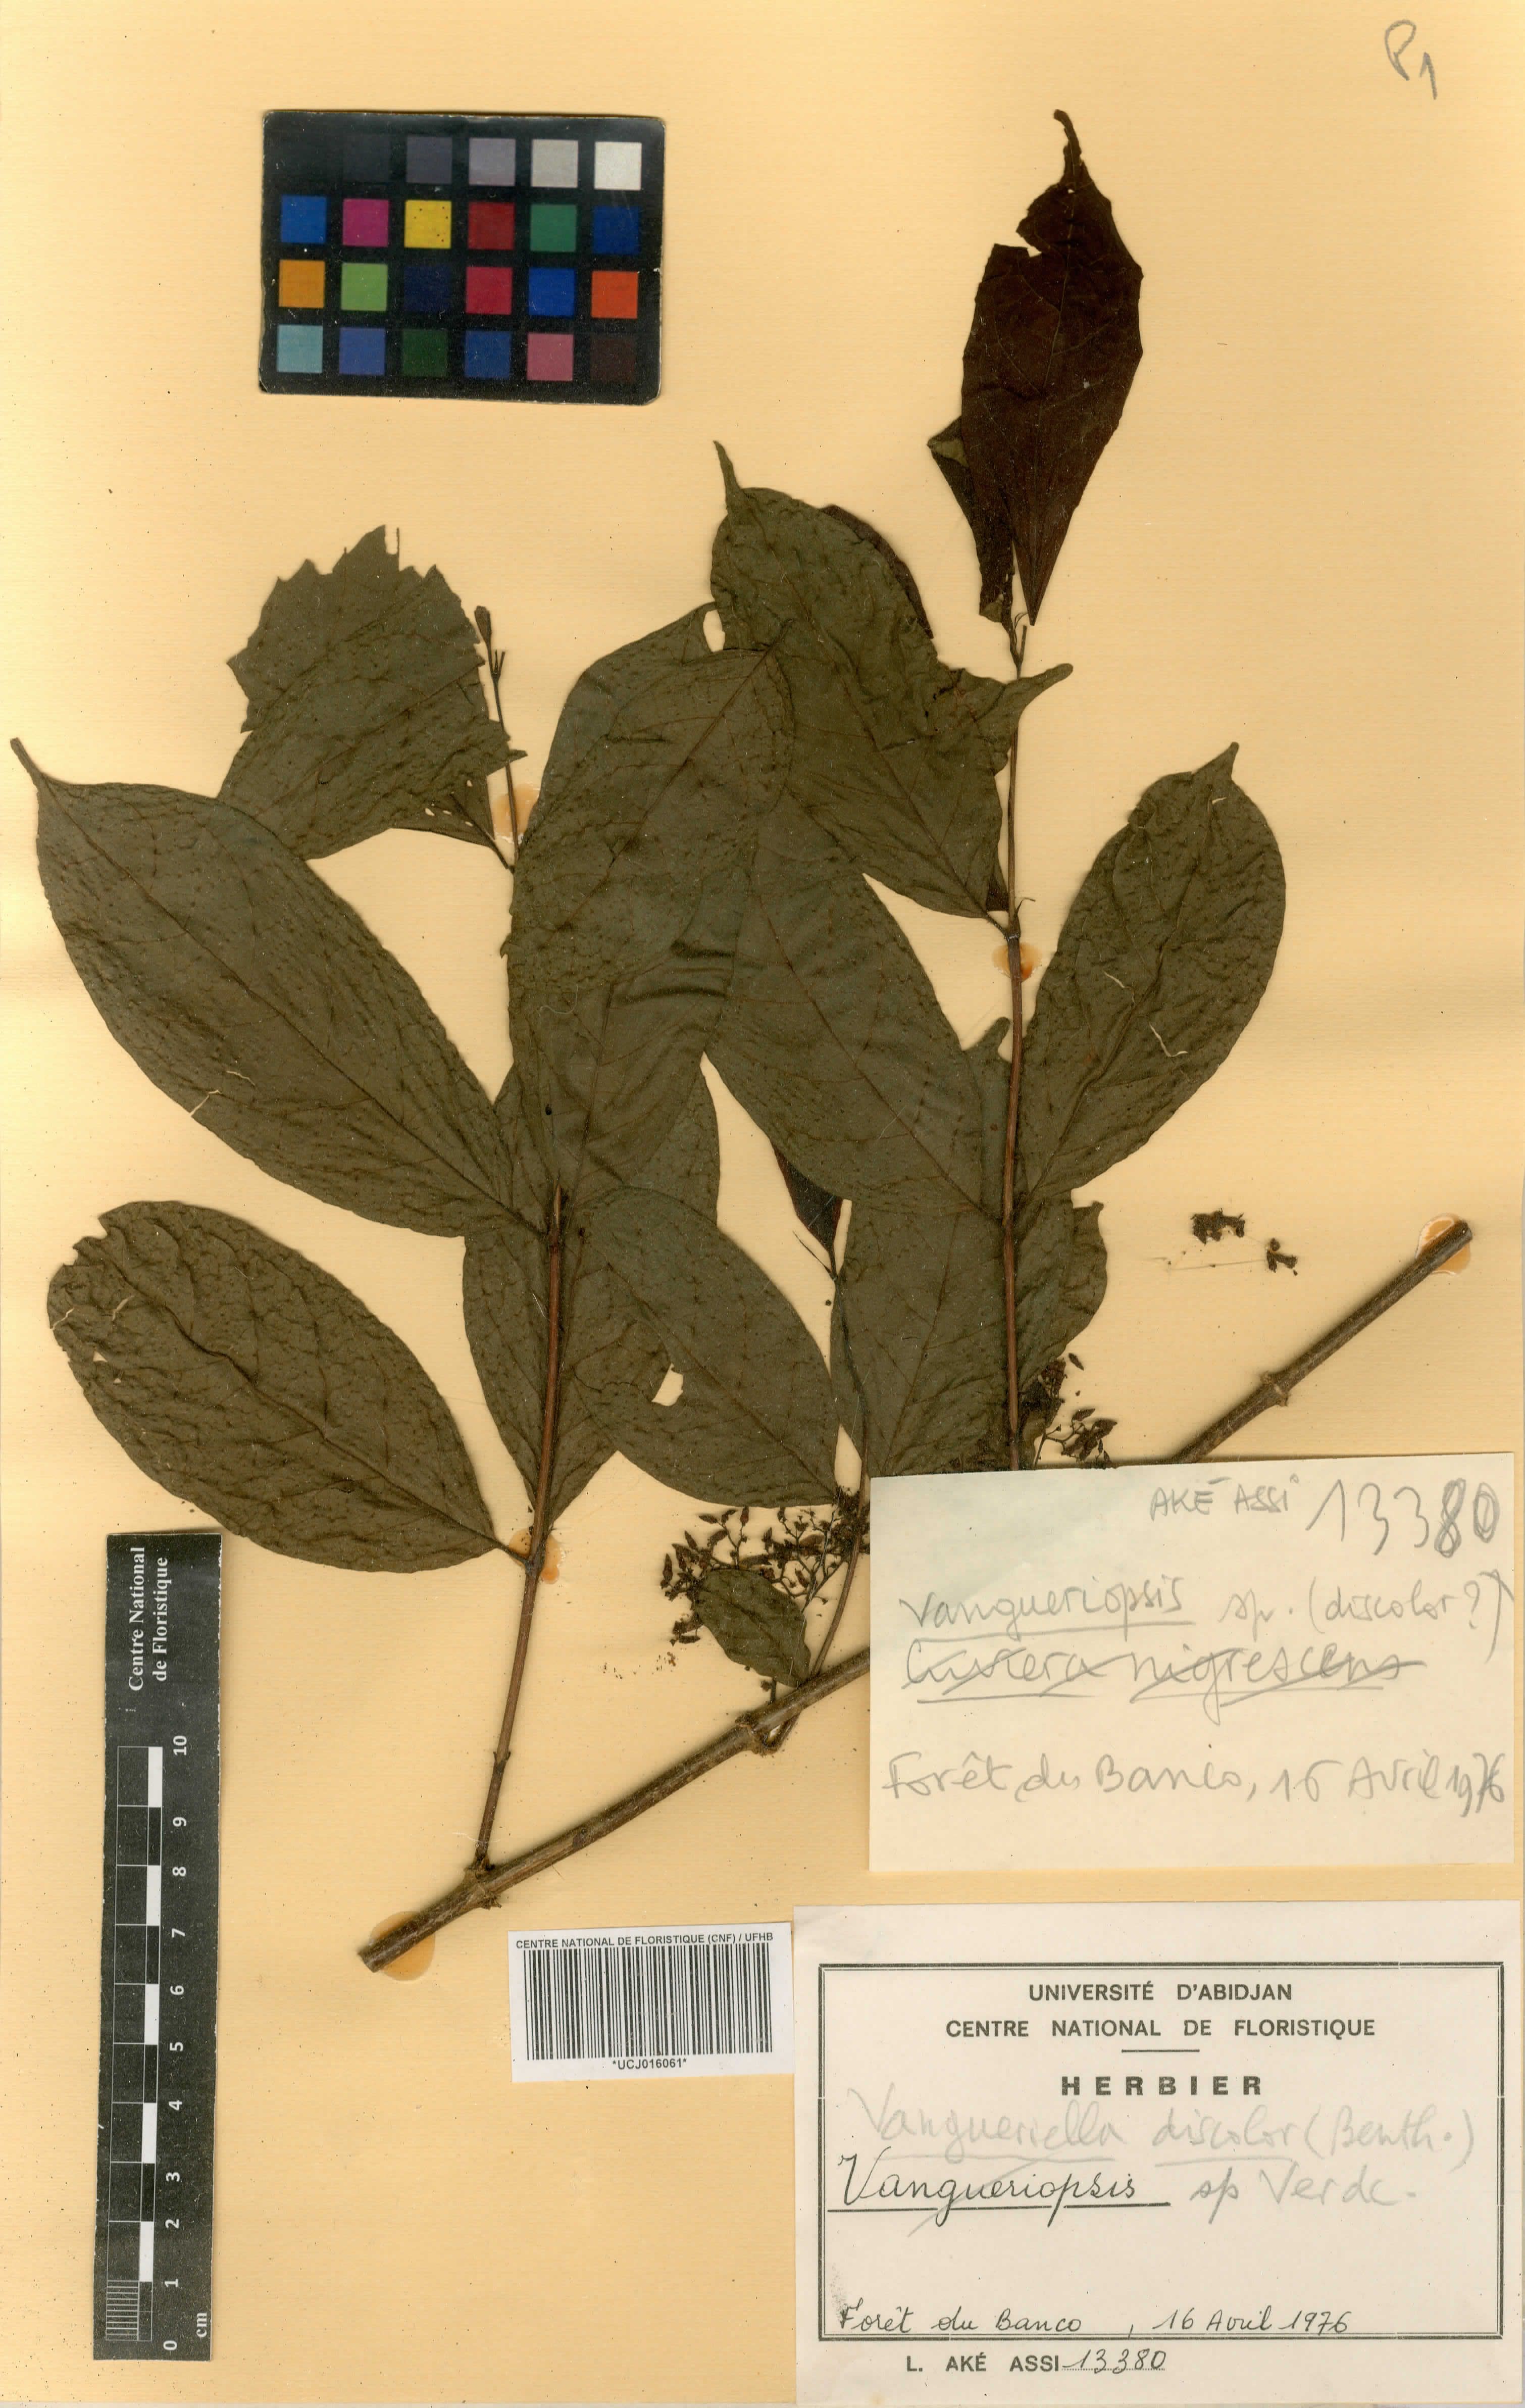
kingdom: Plantae
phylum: Tracheophyta
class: Magnoliopsida
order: Gentianales
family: Rubiaceae
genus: Vangueriopsis
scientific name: Vangueriopsis
